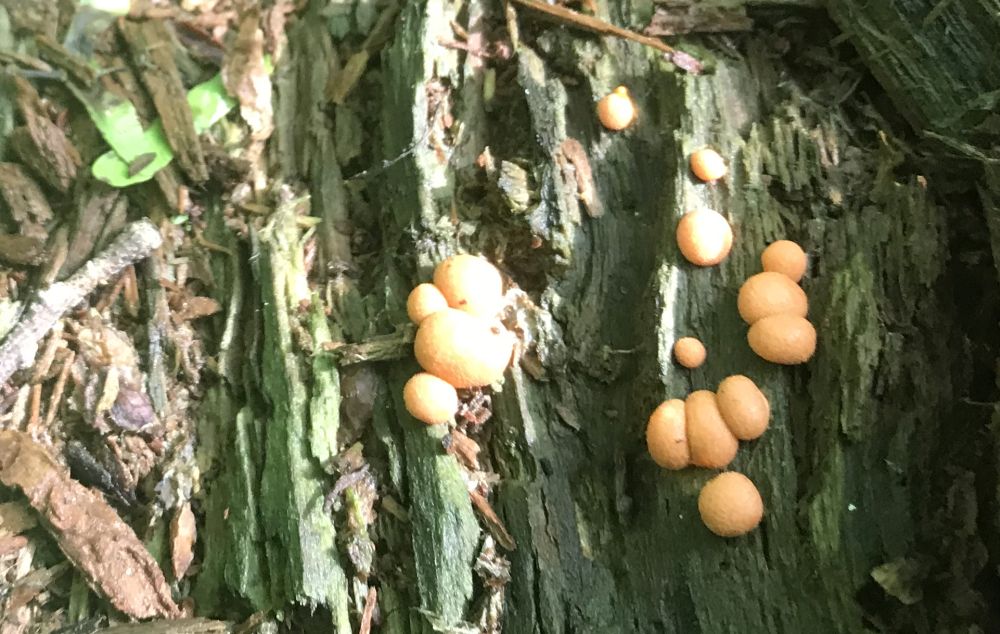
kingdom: Protozoa
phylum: Mycetozoa
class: Myxomycetes
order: Cribrariales
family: Tubiferaceae
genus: Lycogala
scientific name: Lycogala epidendrum
